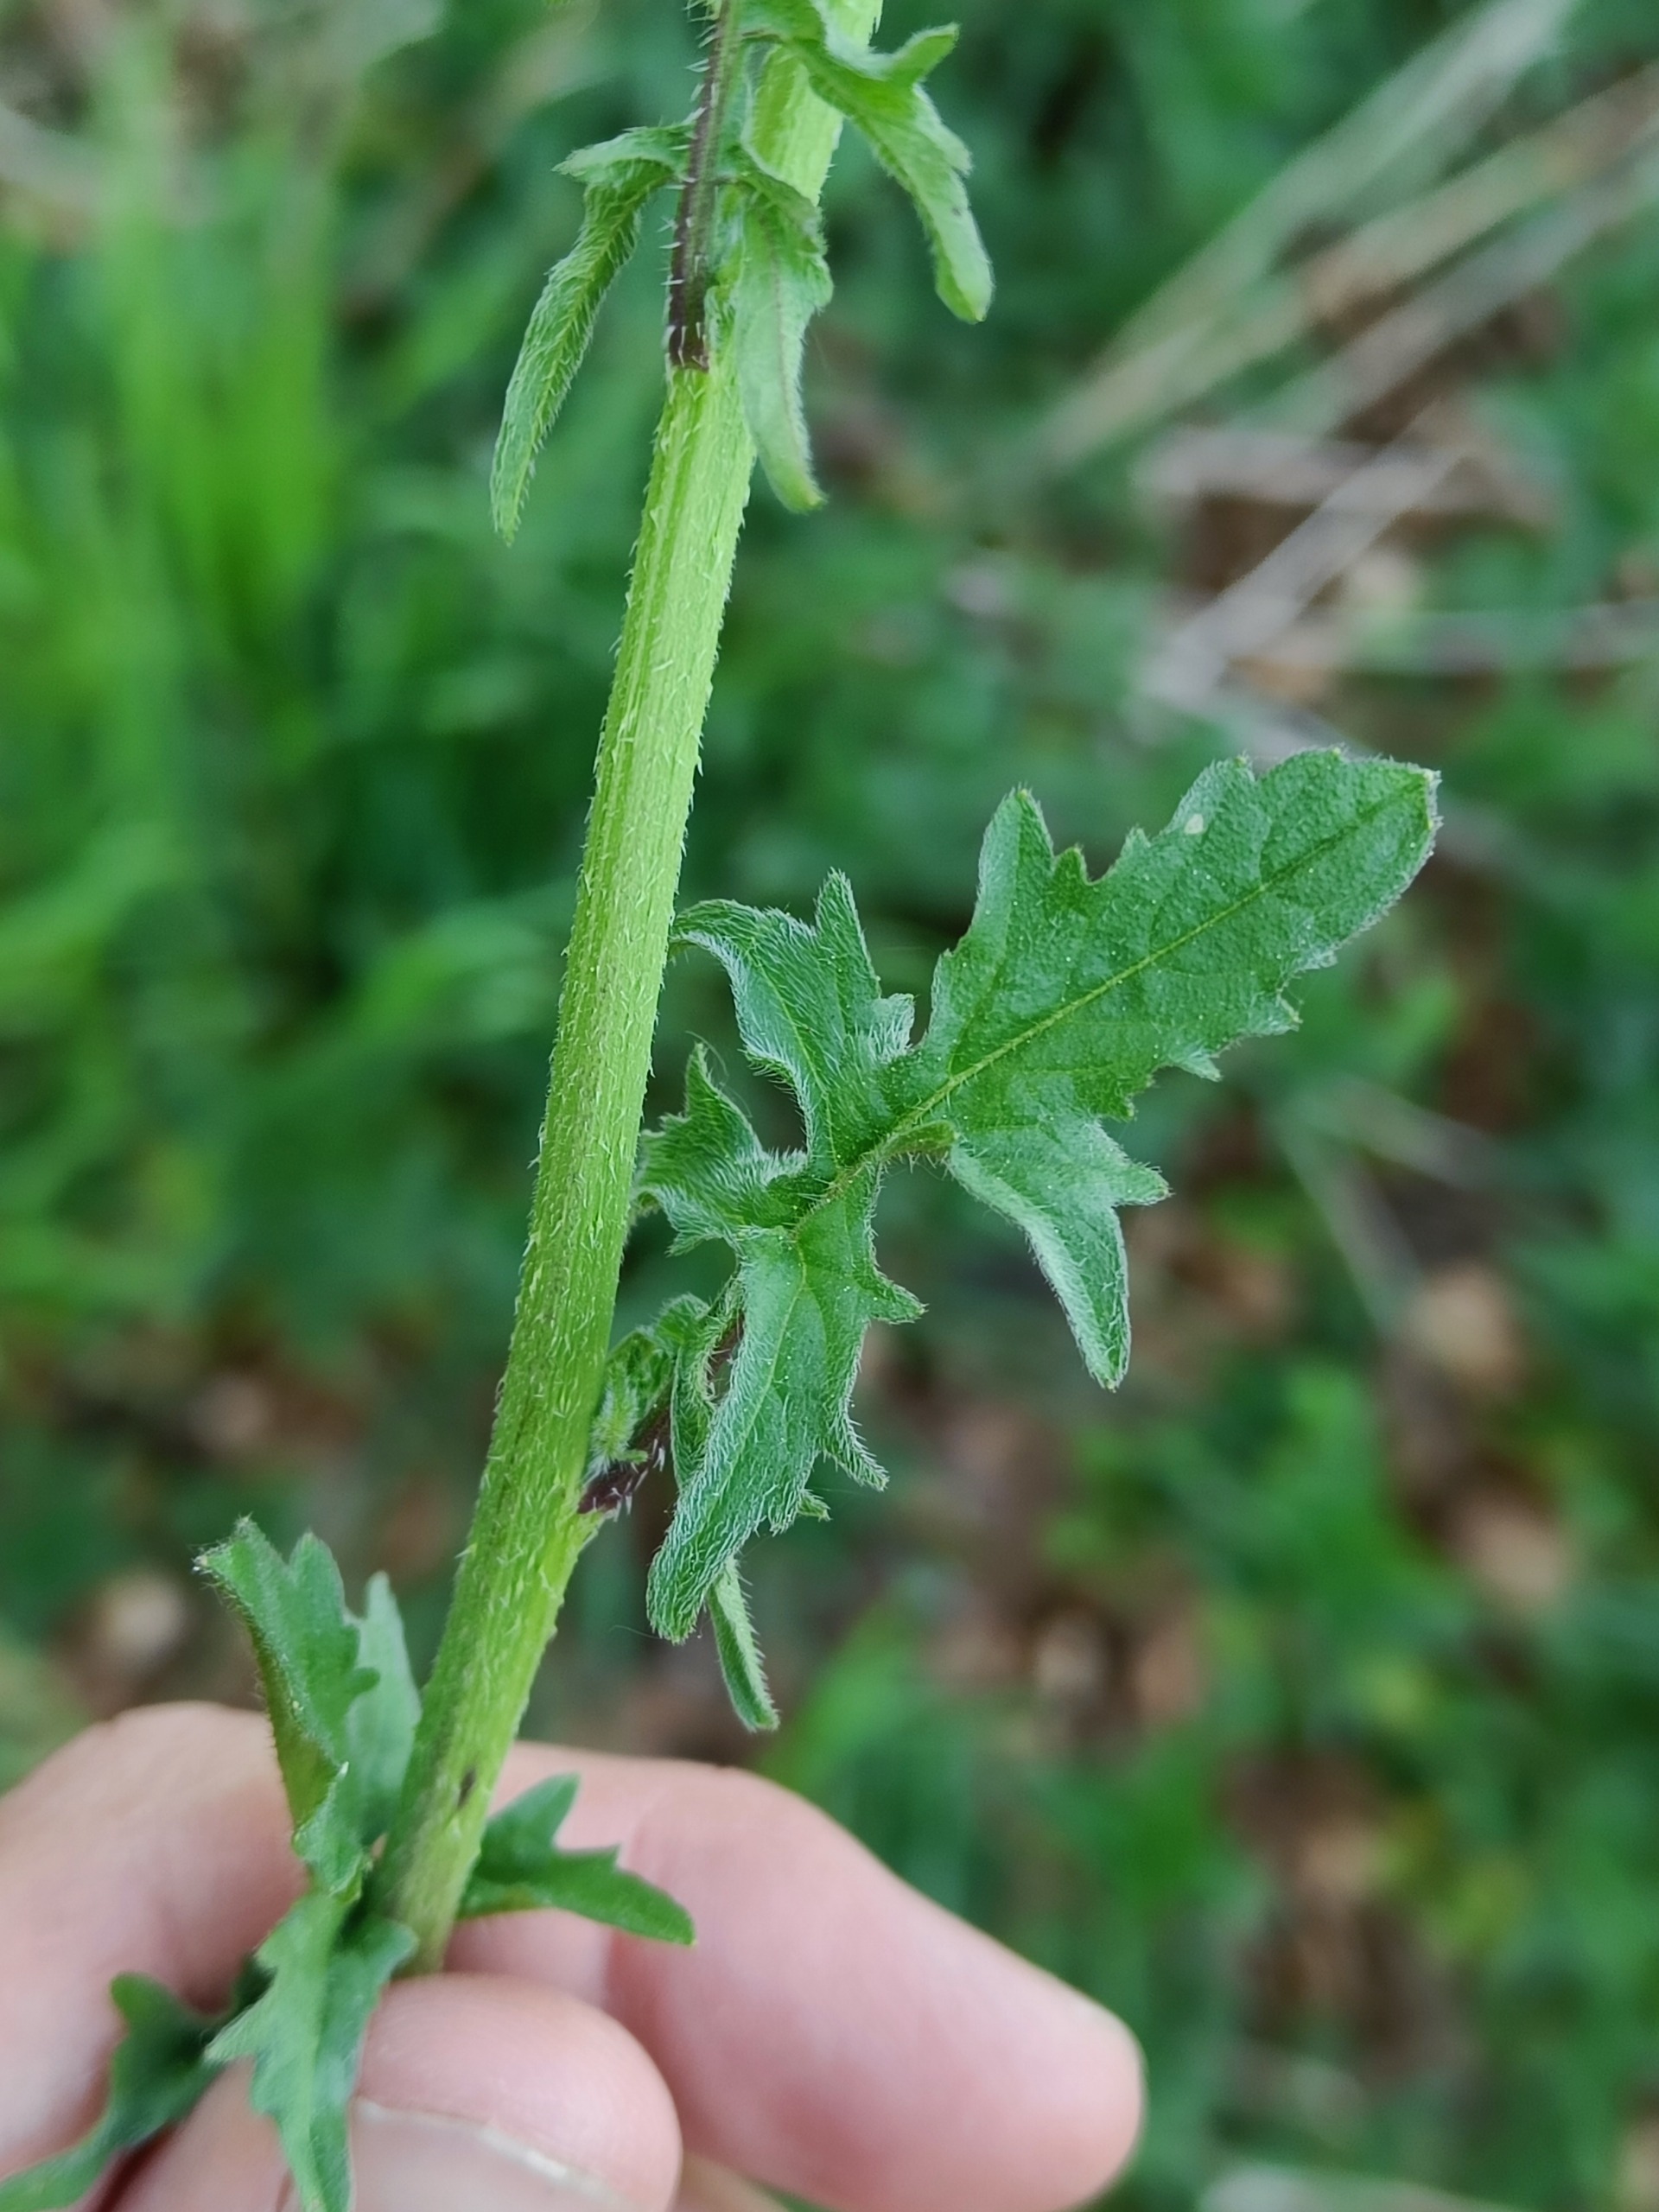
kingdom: Plantae
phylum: Tracheophyta
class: Magnoliopsida
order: Brassicales
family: Brassicaceae
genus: Sisymbrium
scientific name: Sisymbrium officinale
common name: Rank vejsennep
